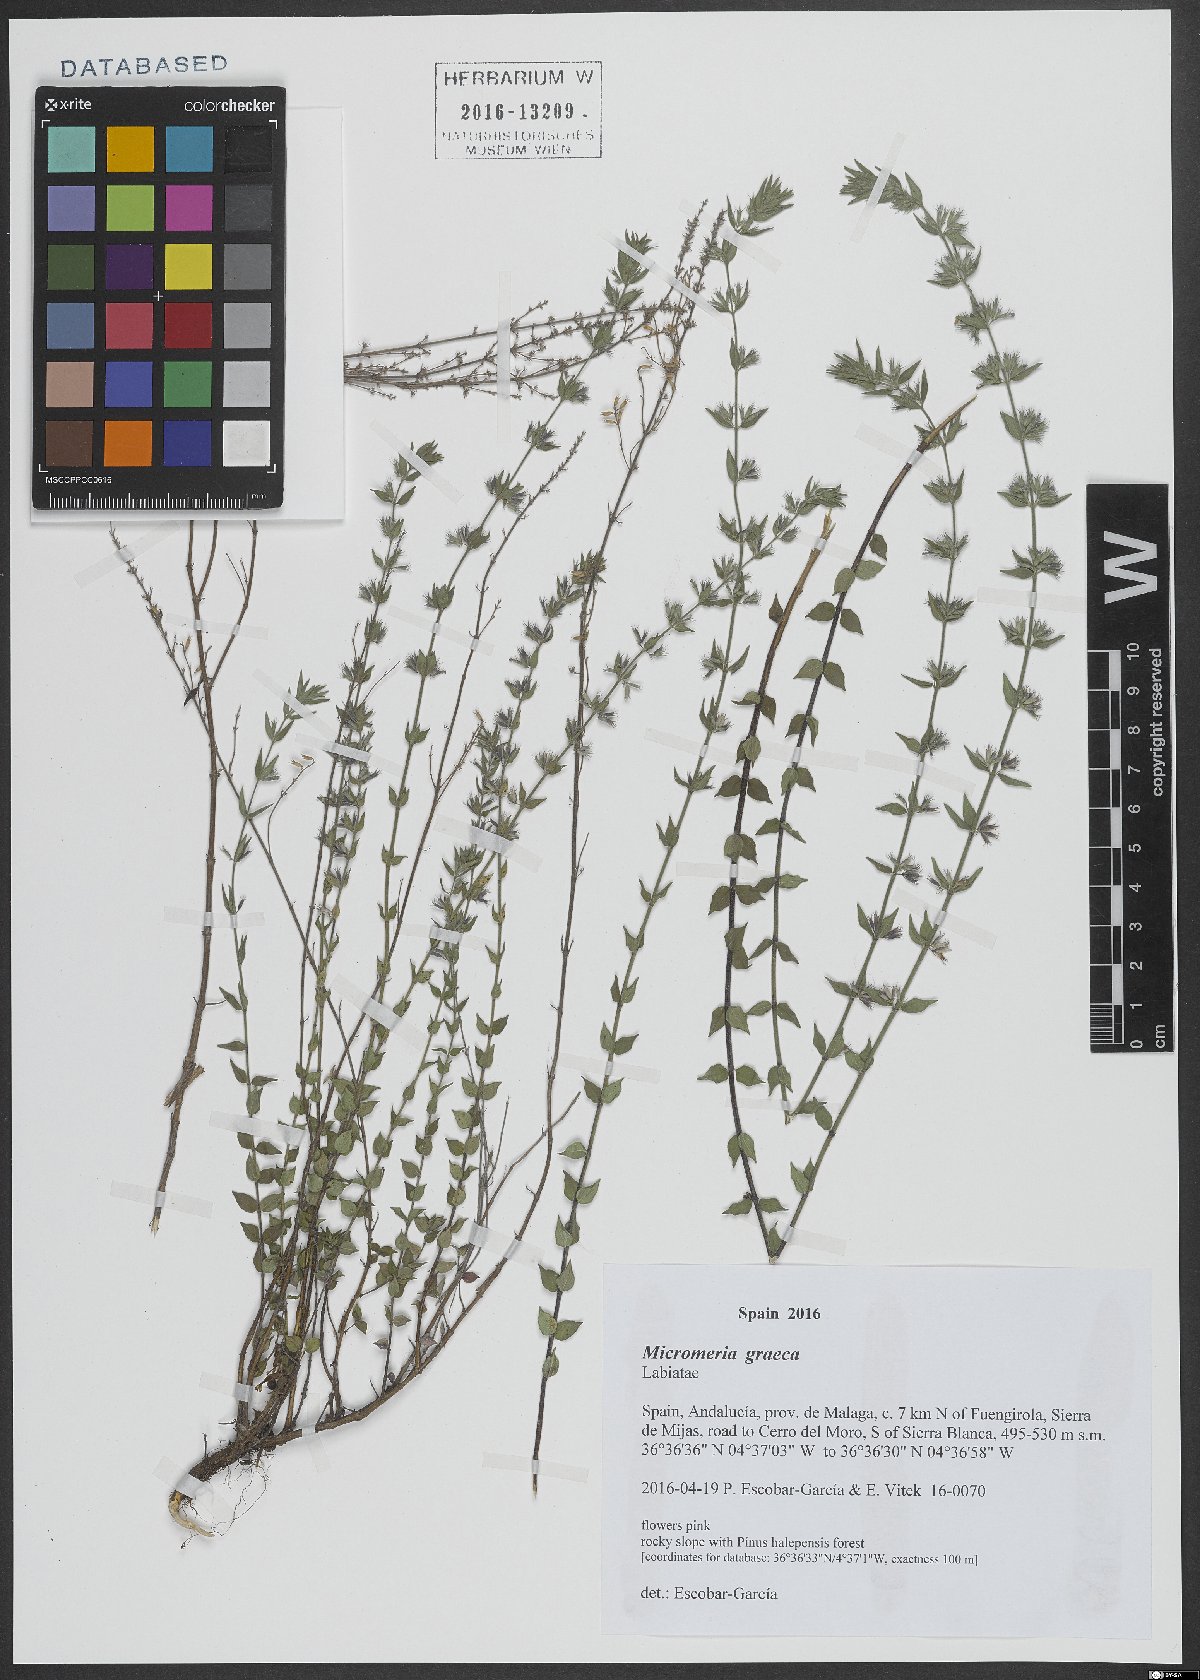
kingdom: Plantae
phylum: Tracheophyta
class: Magnoliopsida
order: Lamiales
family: Lamiaceae
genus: Micromeria
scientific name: Micromeria graeca
